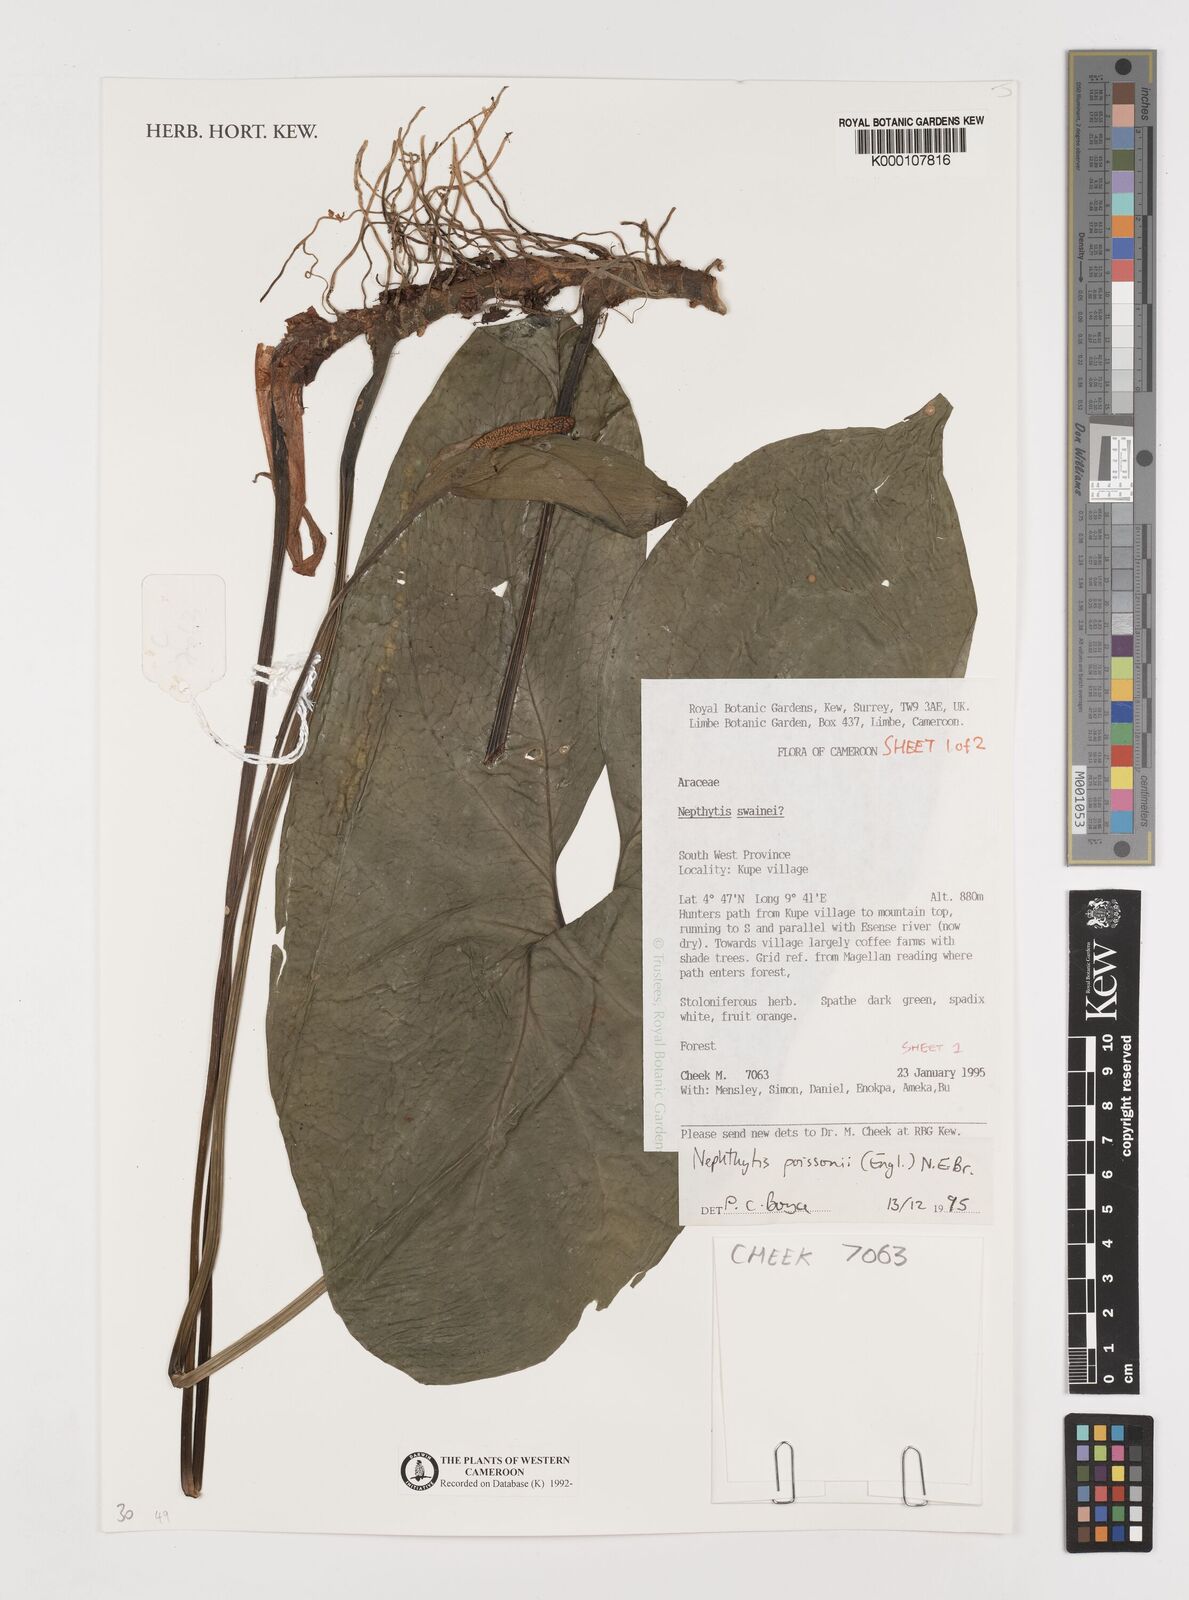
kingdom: Plantae
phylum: Tracheophyta
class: Liliopsida
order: Alismatales
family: Araceae
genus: Nephthytis
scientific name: Nephthytis poissonii
